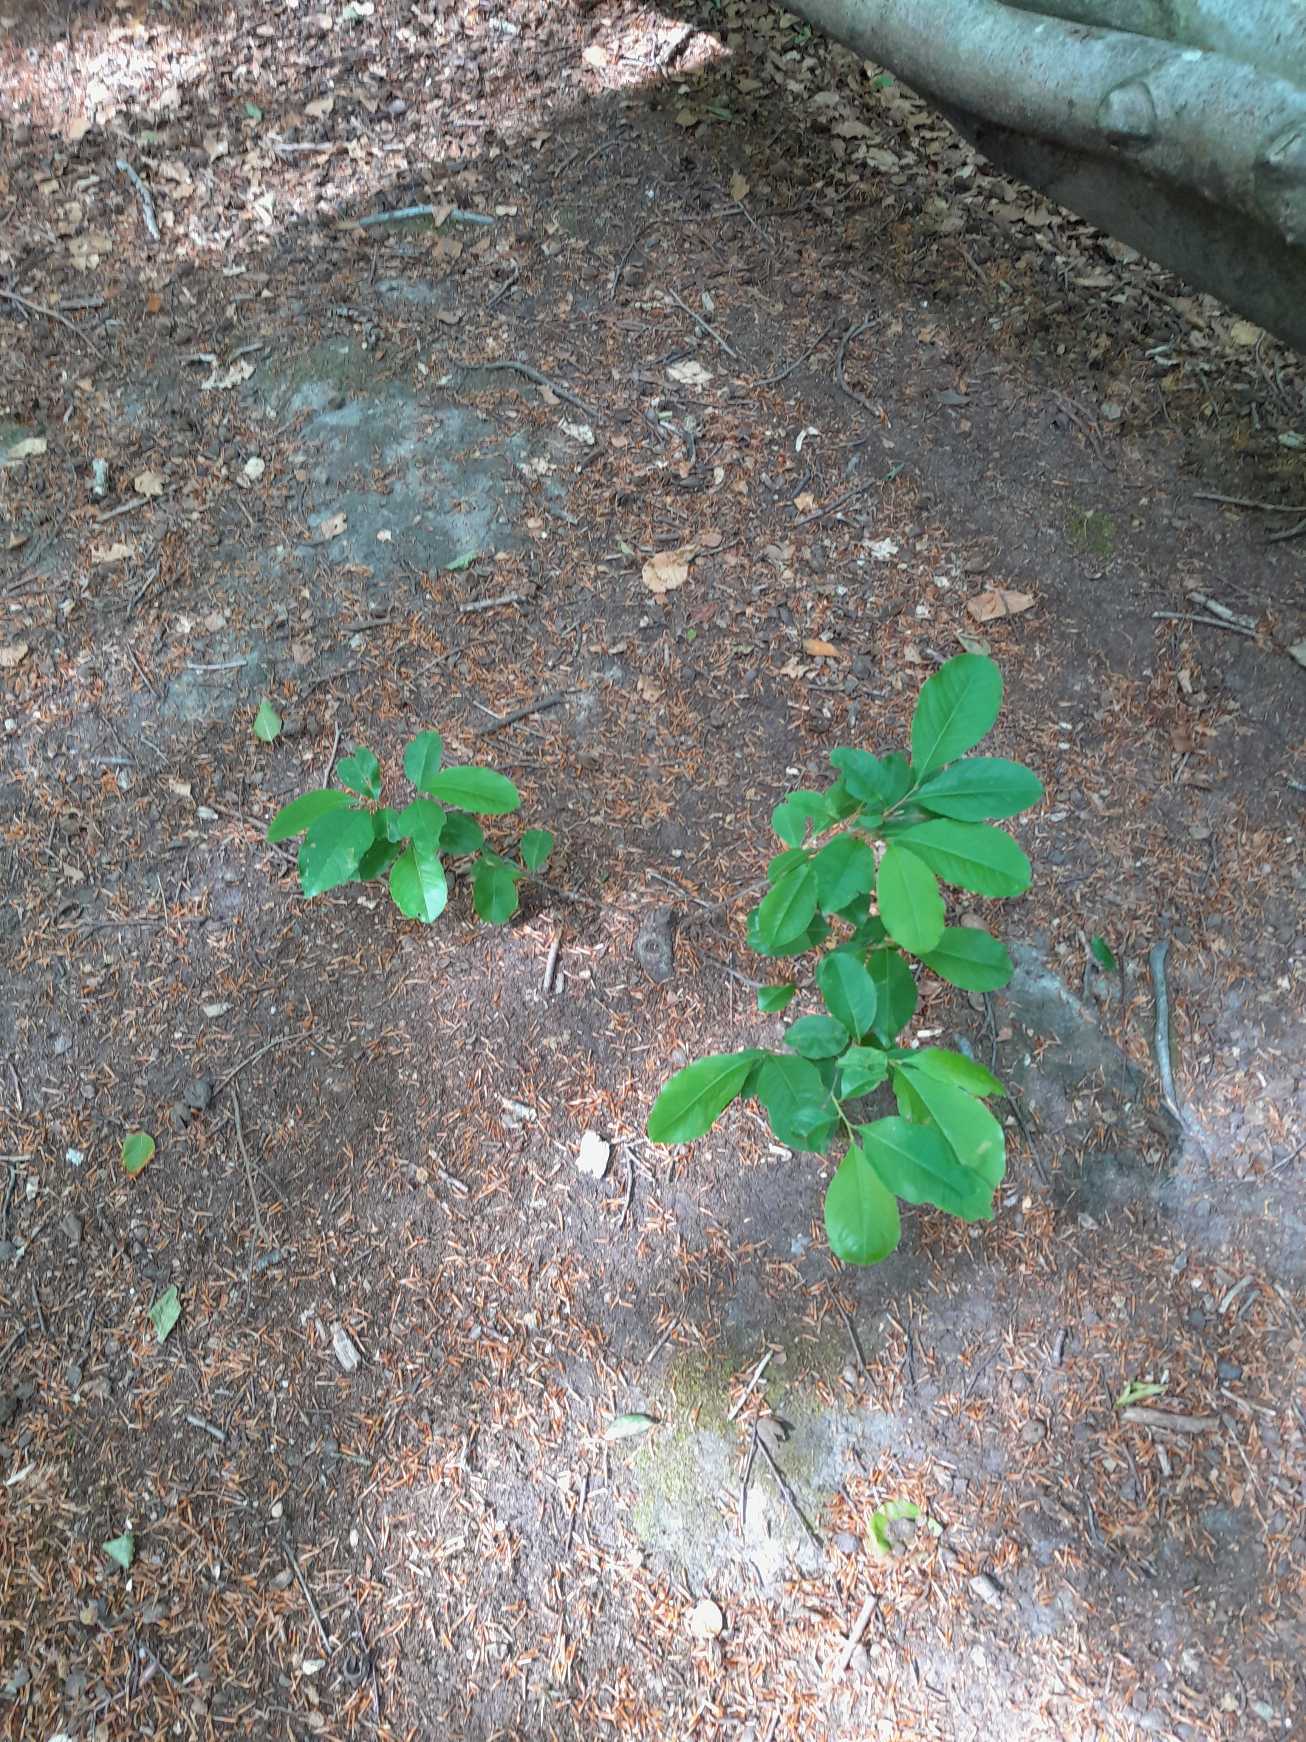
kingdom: Plantae
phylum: Tracheophyta
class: Magnoliopsida
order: Rosales
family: Rosaceae
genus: Prunus
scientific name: Prunus serotina
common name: Glansbladet hæg
